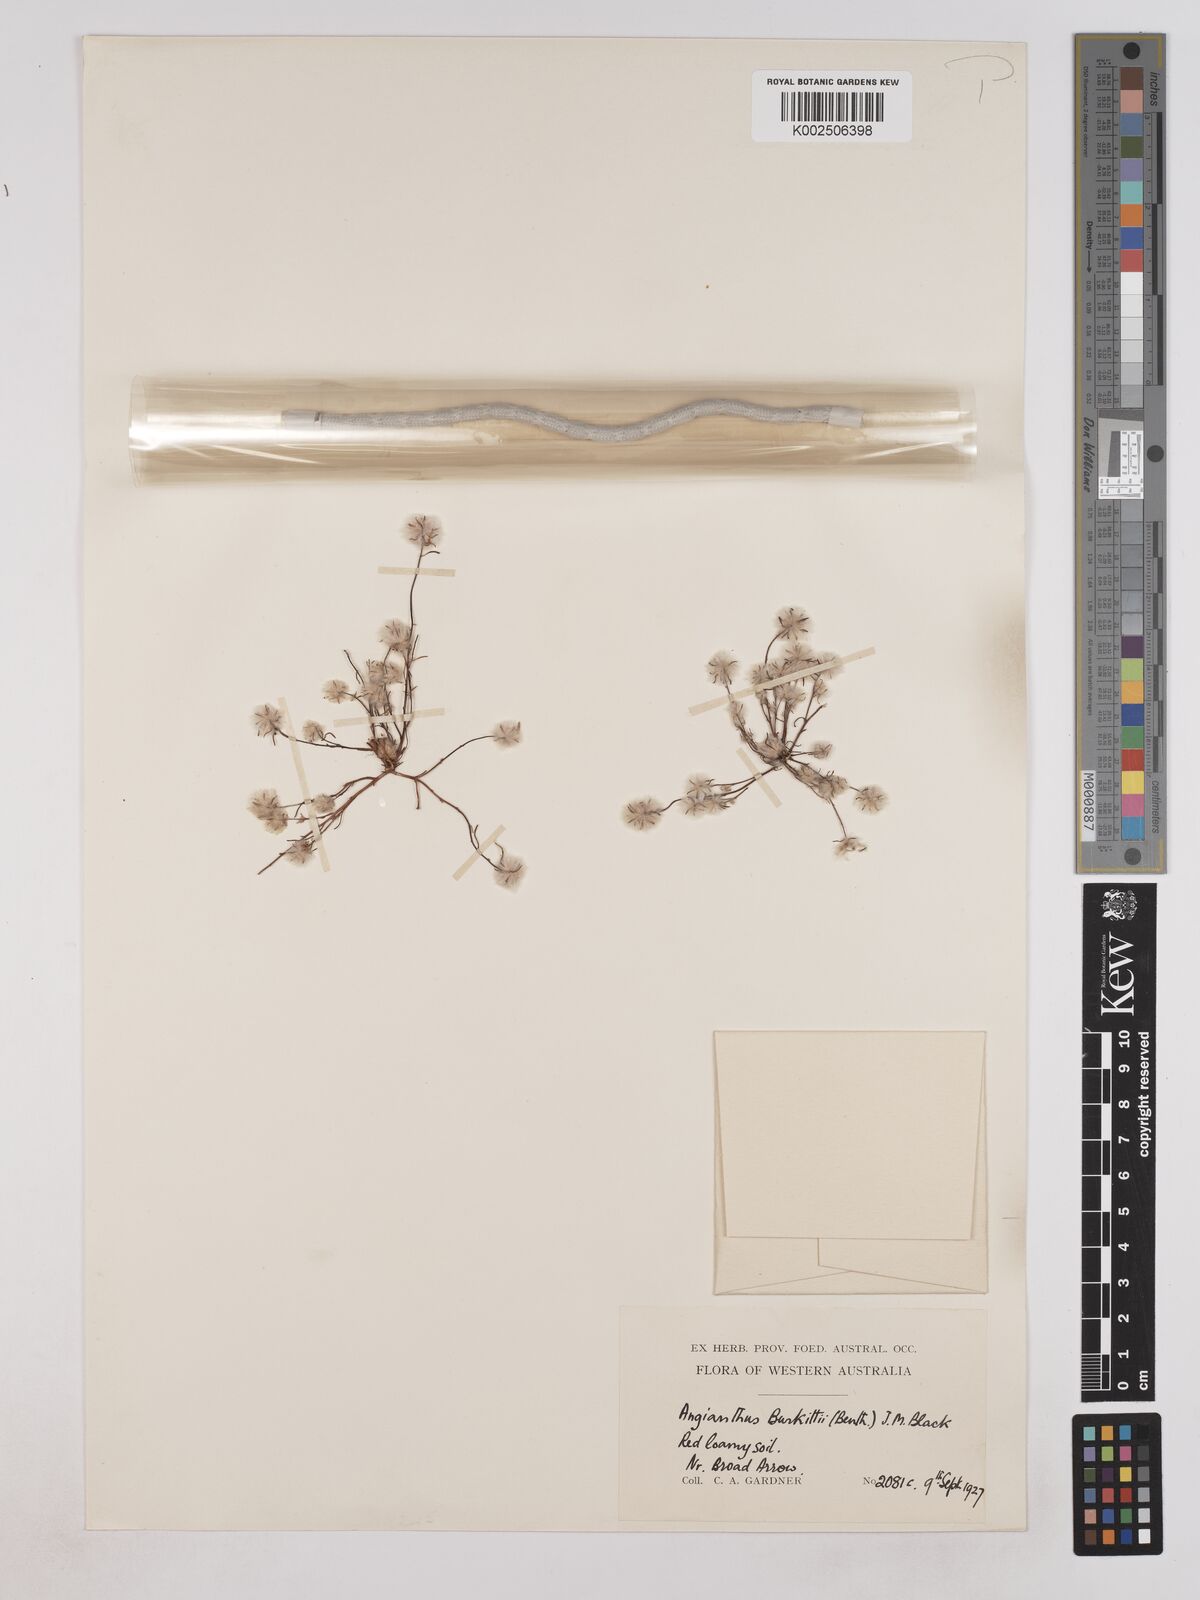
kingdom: Plantae
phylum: Tracheophyta
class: Magnoliopsida
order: Asterales
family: Asteraceae
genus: Lemooria
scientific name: Lemooria burkittii
